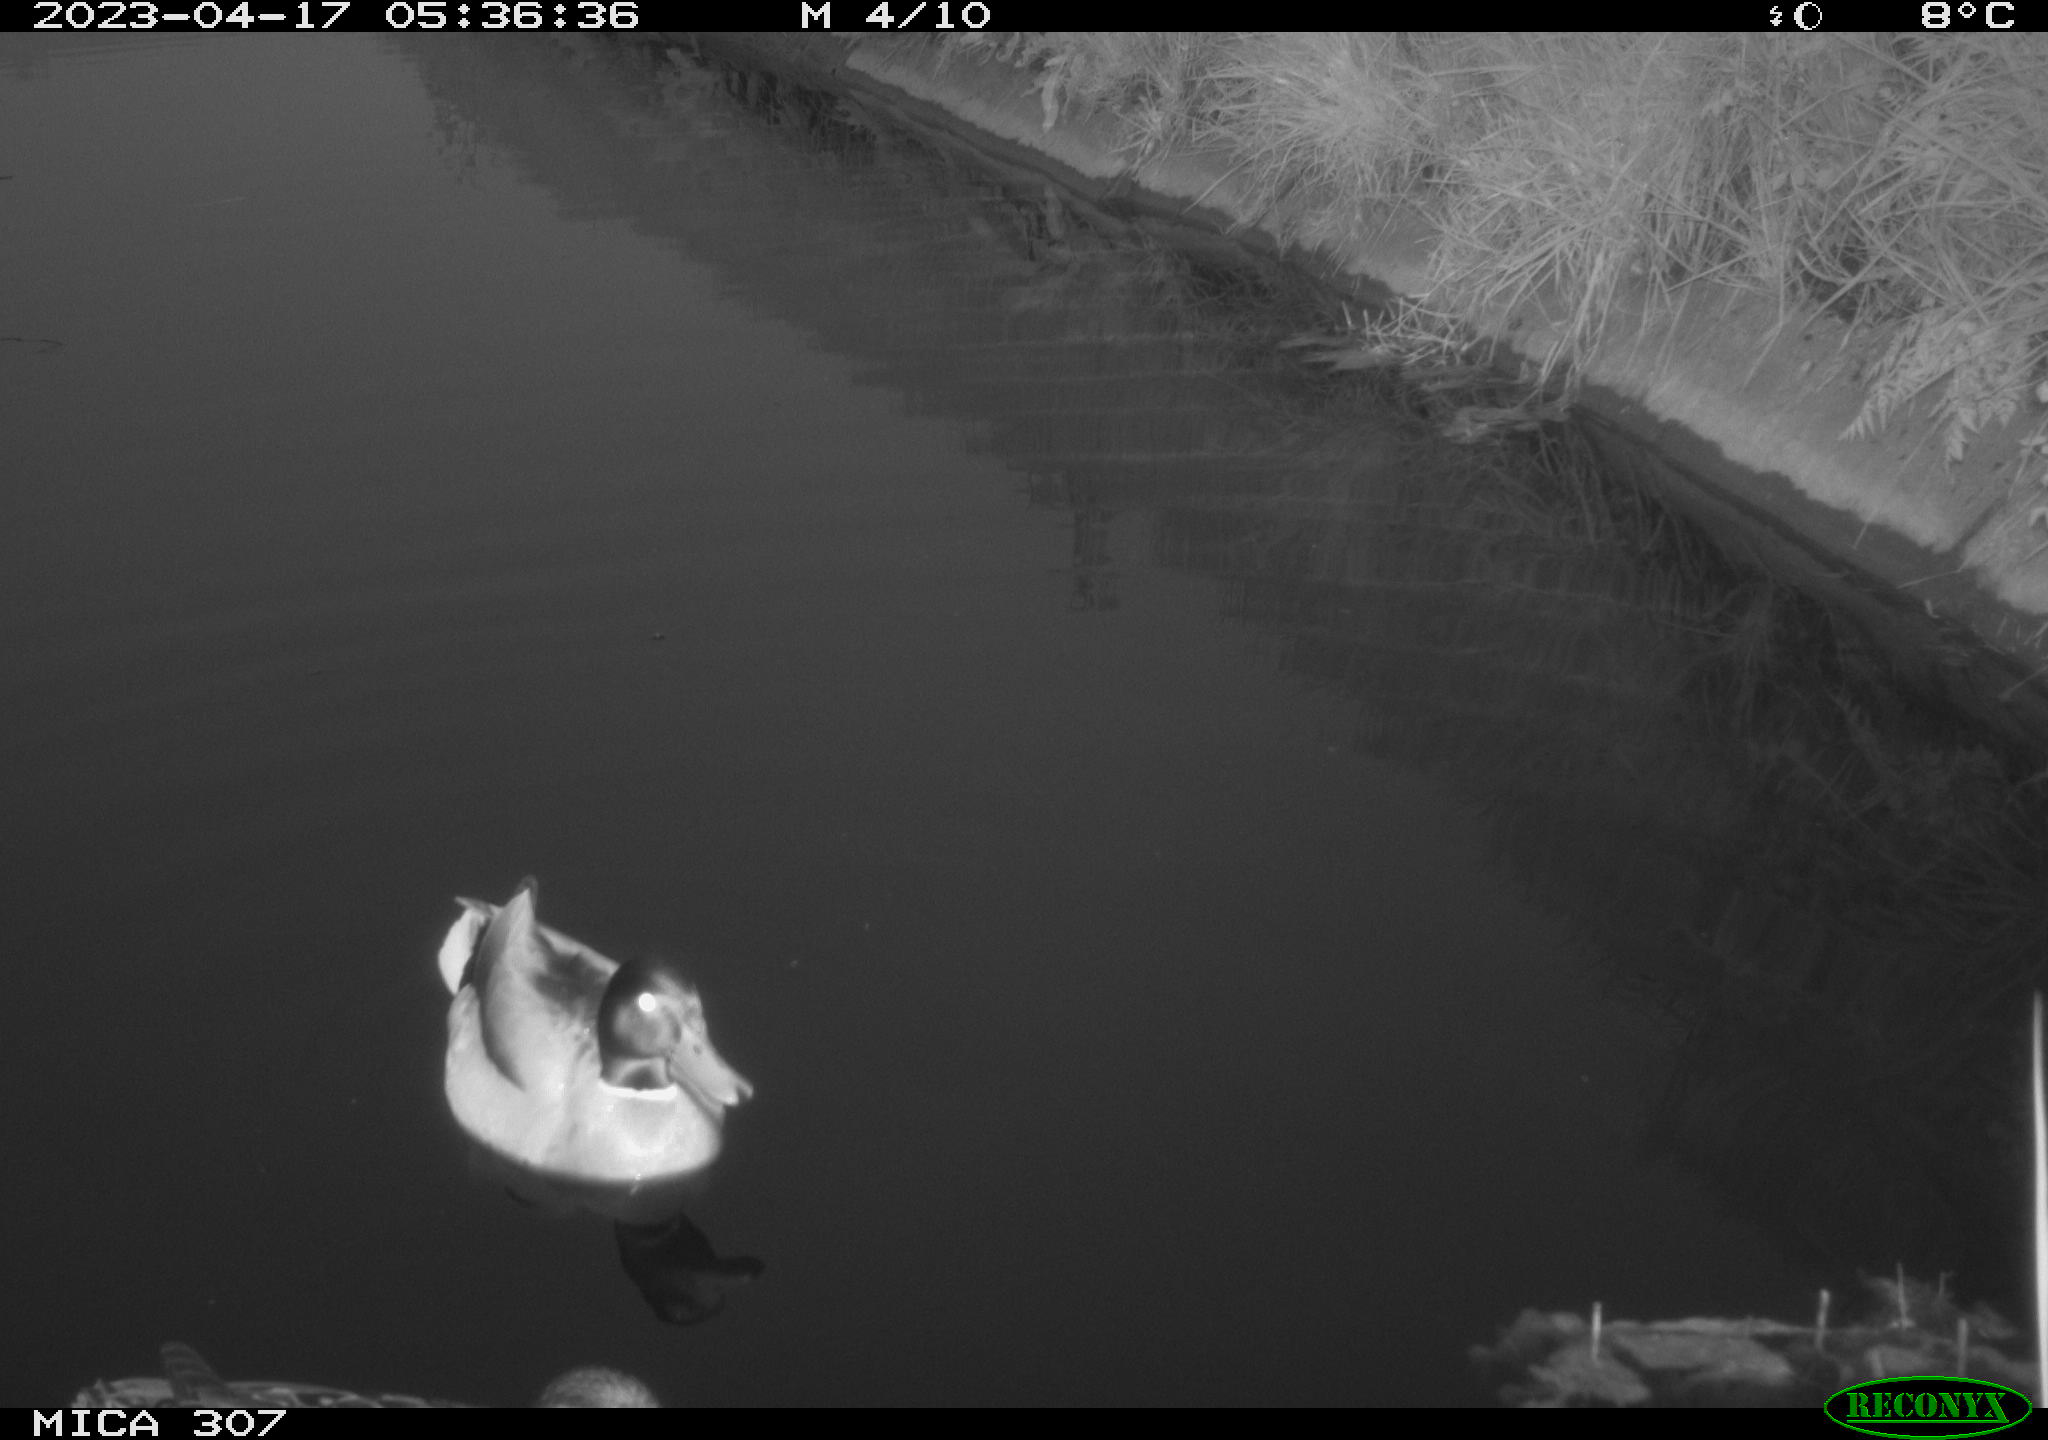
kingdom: Animalia
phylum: Chordata
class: Aves
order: Anseriformes
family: Anatidae
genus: Anas
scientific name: Anas
